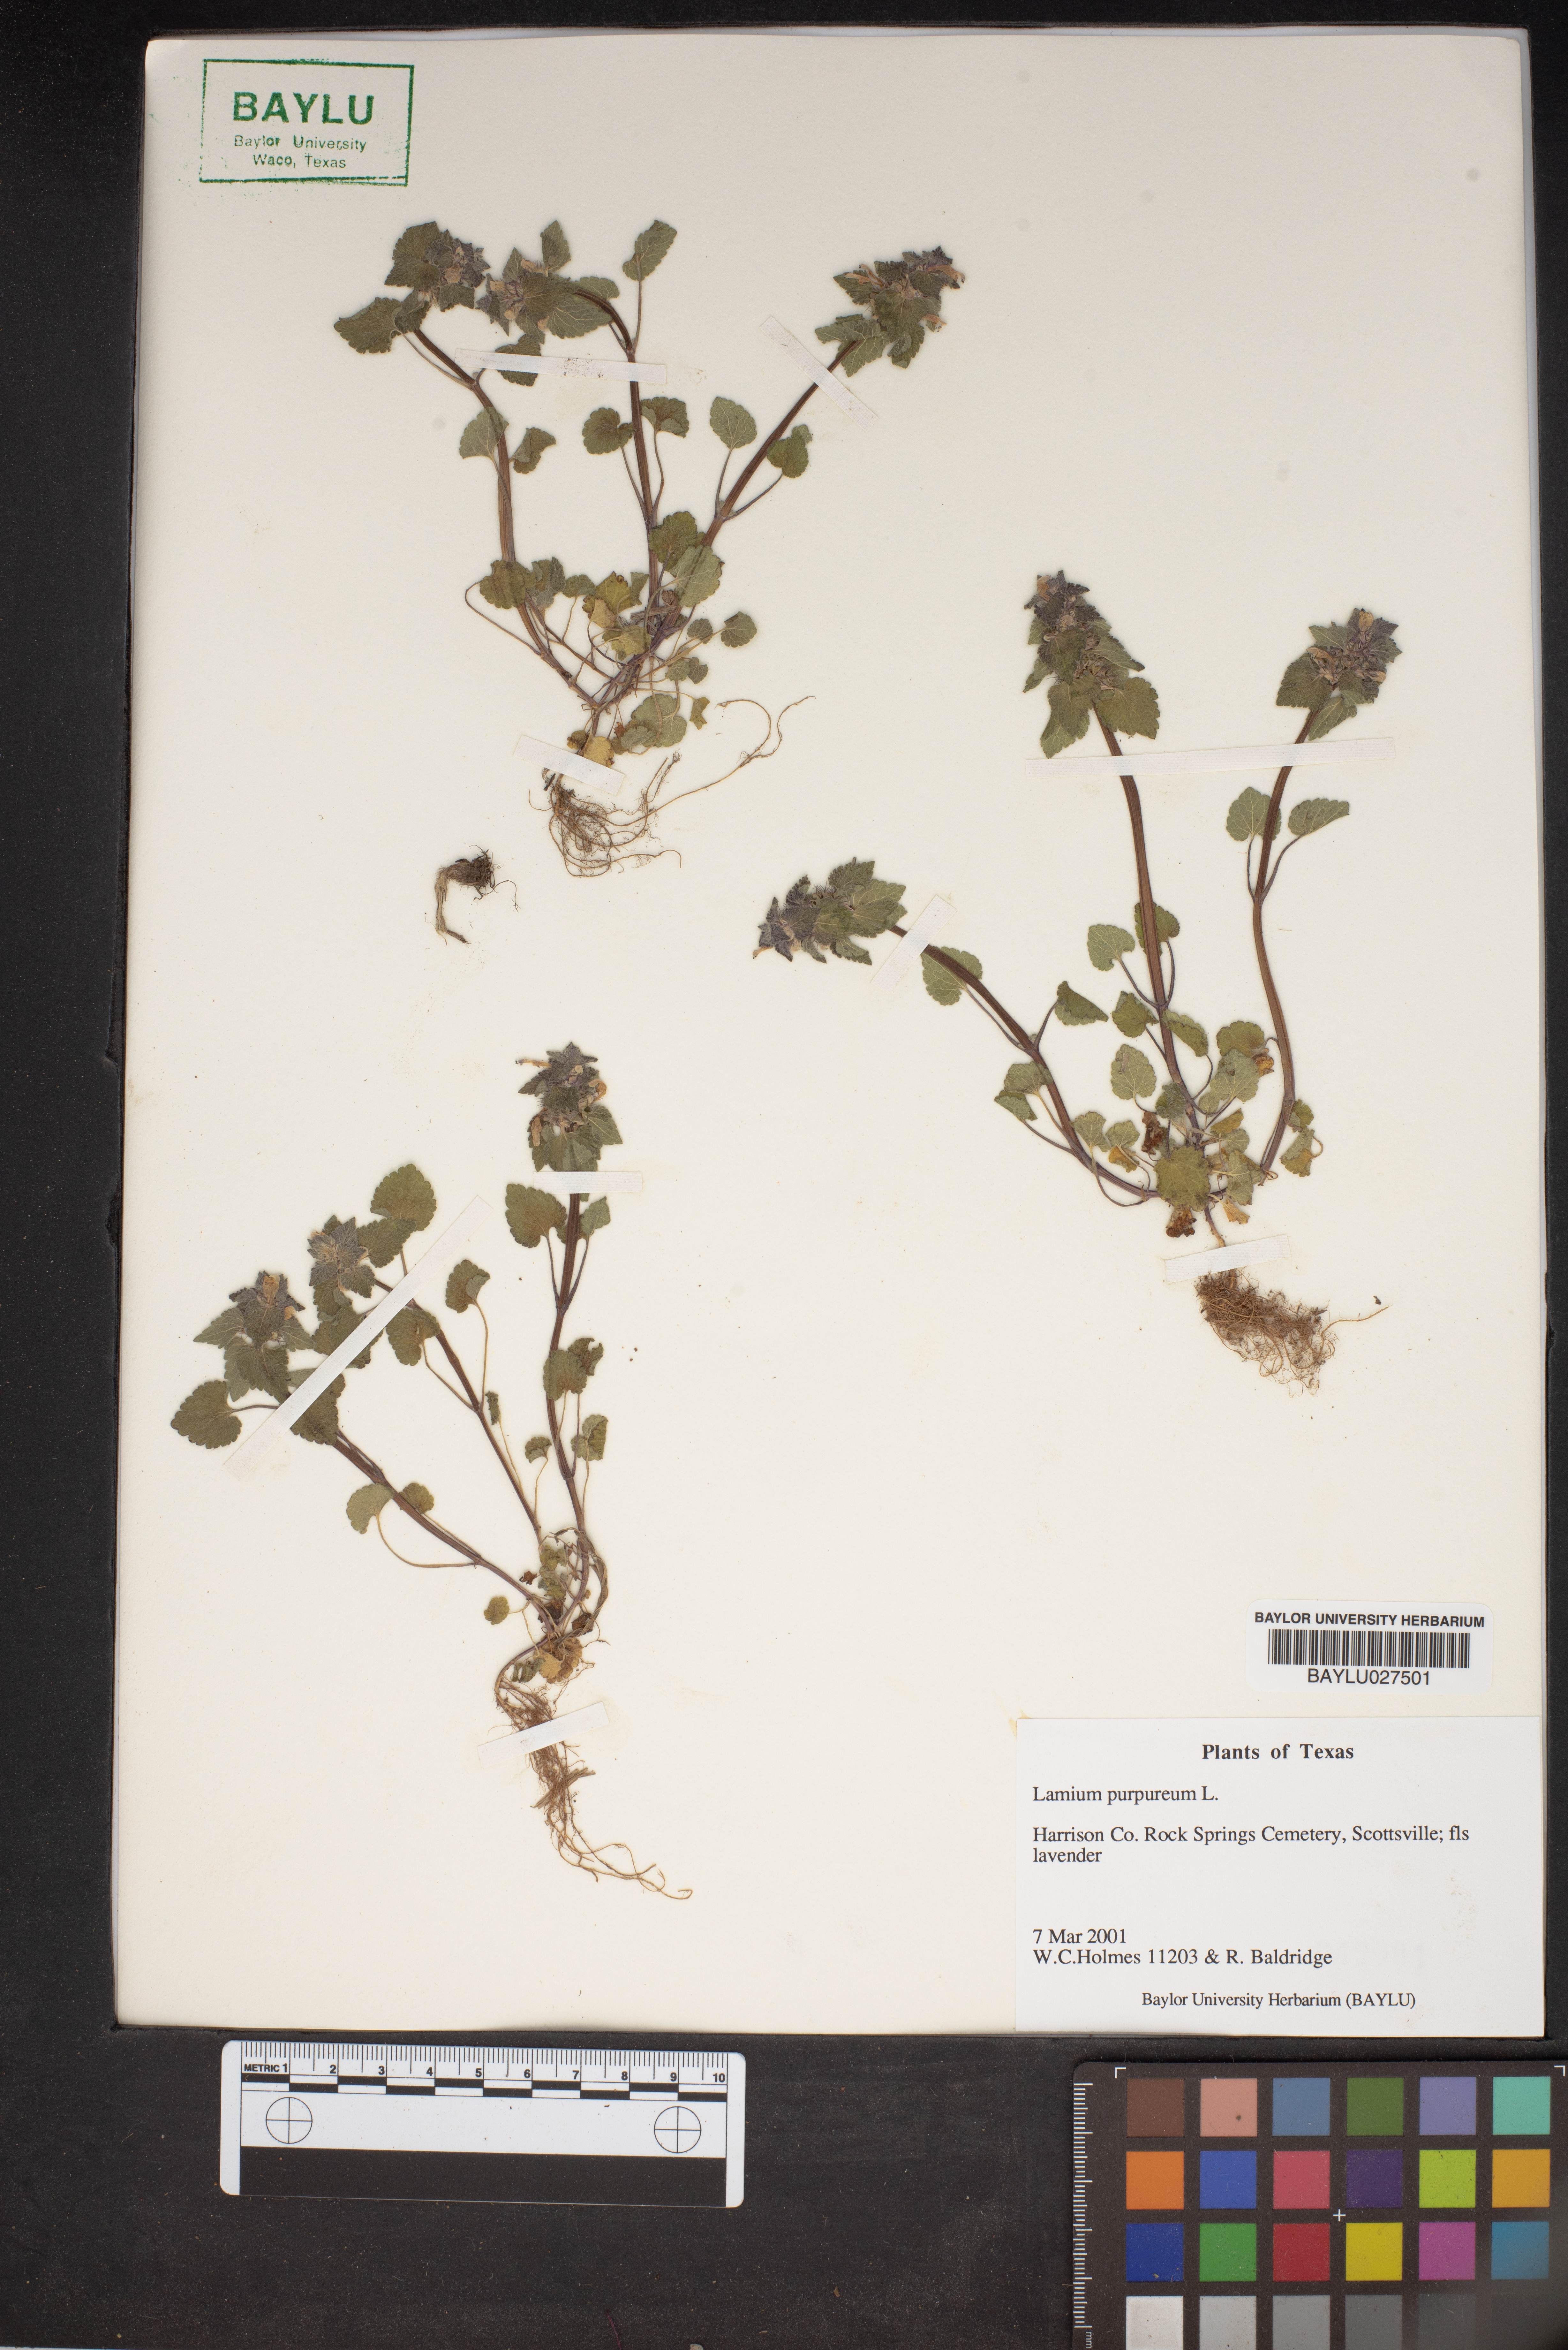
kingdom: Plantae
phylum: Tracheophyta
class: Magnoliopsida
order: Lamiales
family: Lamiaceae
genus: Lamium
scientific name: Lamium purpureum
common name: Red dead-nettle
